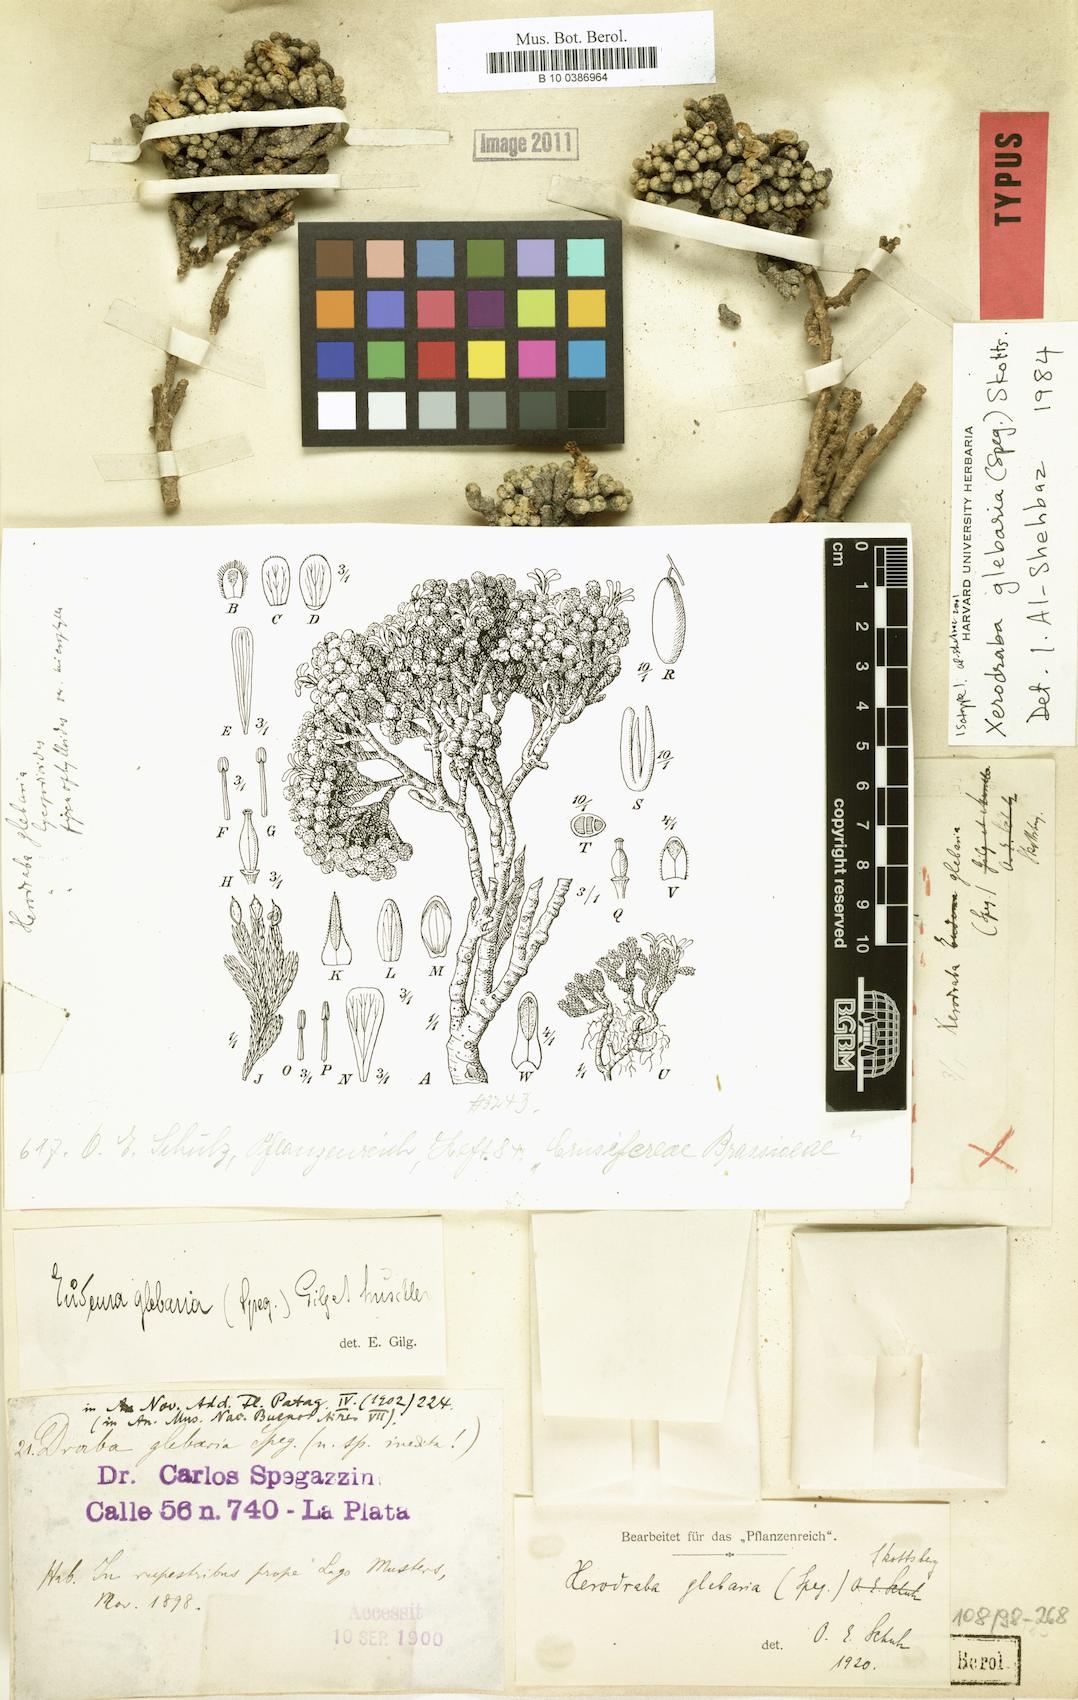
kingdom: Plantae
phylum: Tracheophyta
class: Magnoliopsida
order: Brassicales
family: Brassicaceae
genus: Xerodraba
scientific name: Xerodraba glebaria
